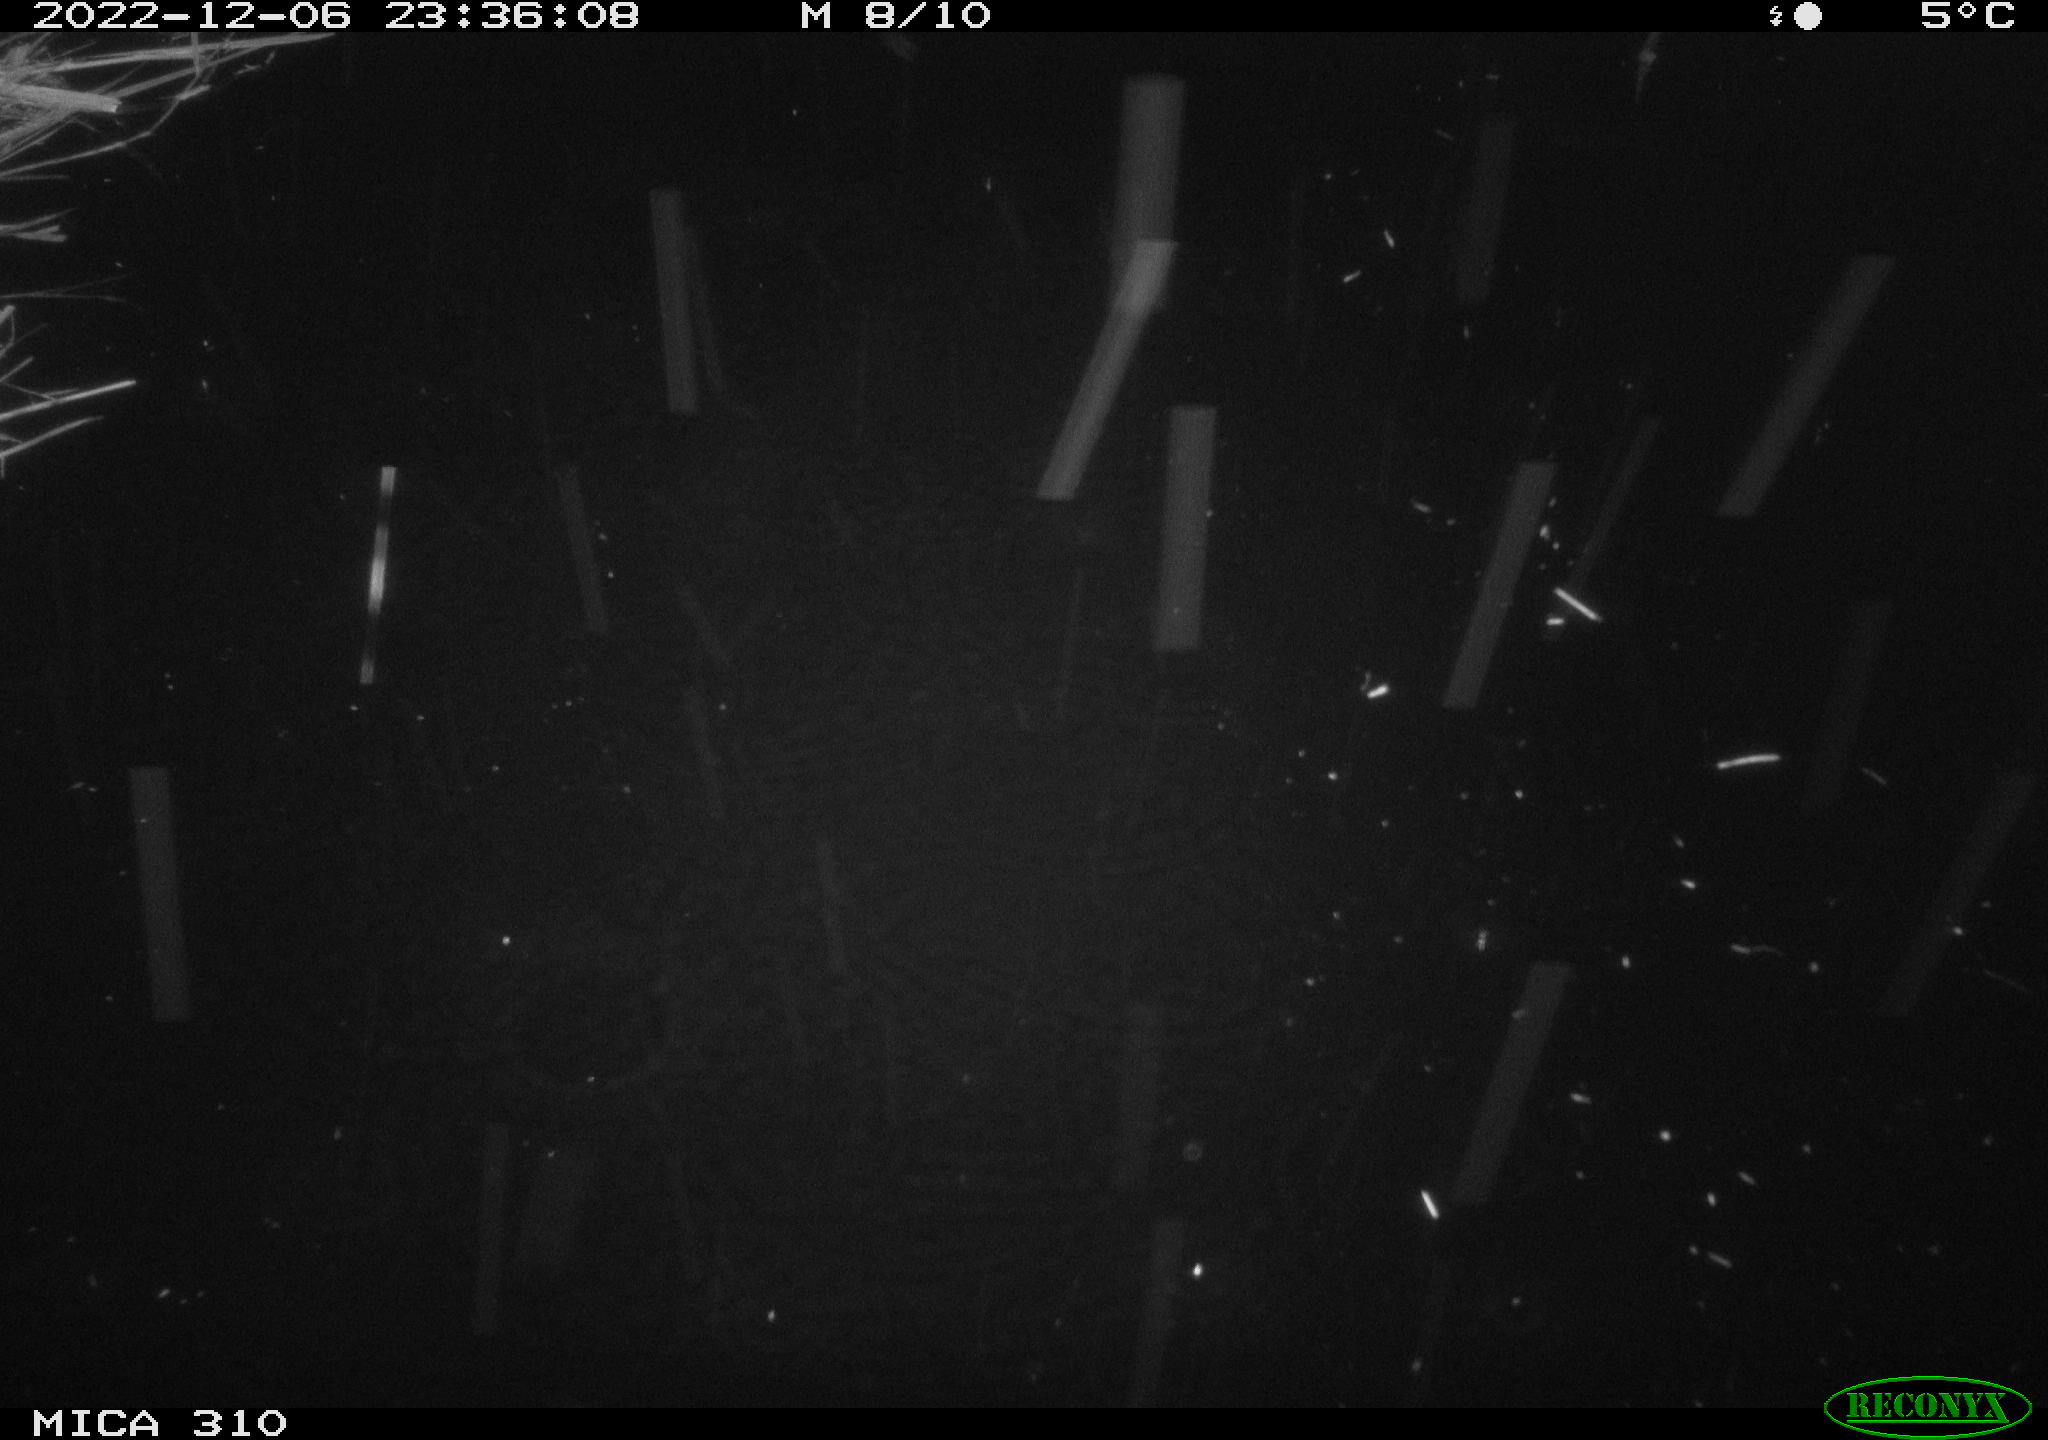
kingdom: Animalia
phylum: Chordata
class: Mammalia
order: Rodentia
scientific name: Rodentia
